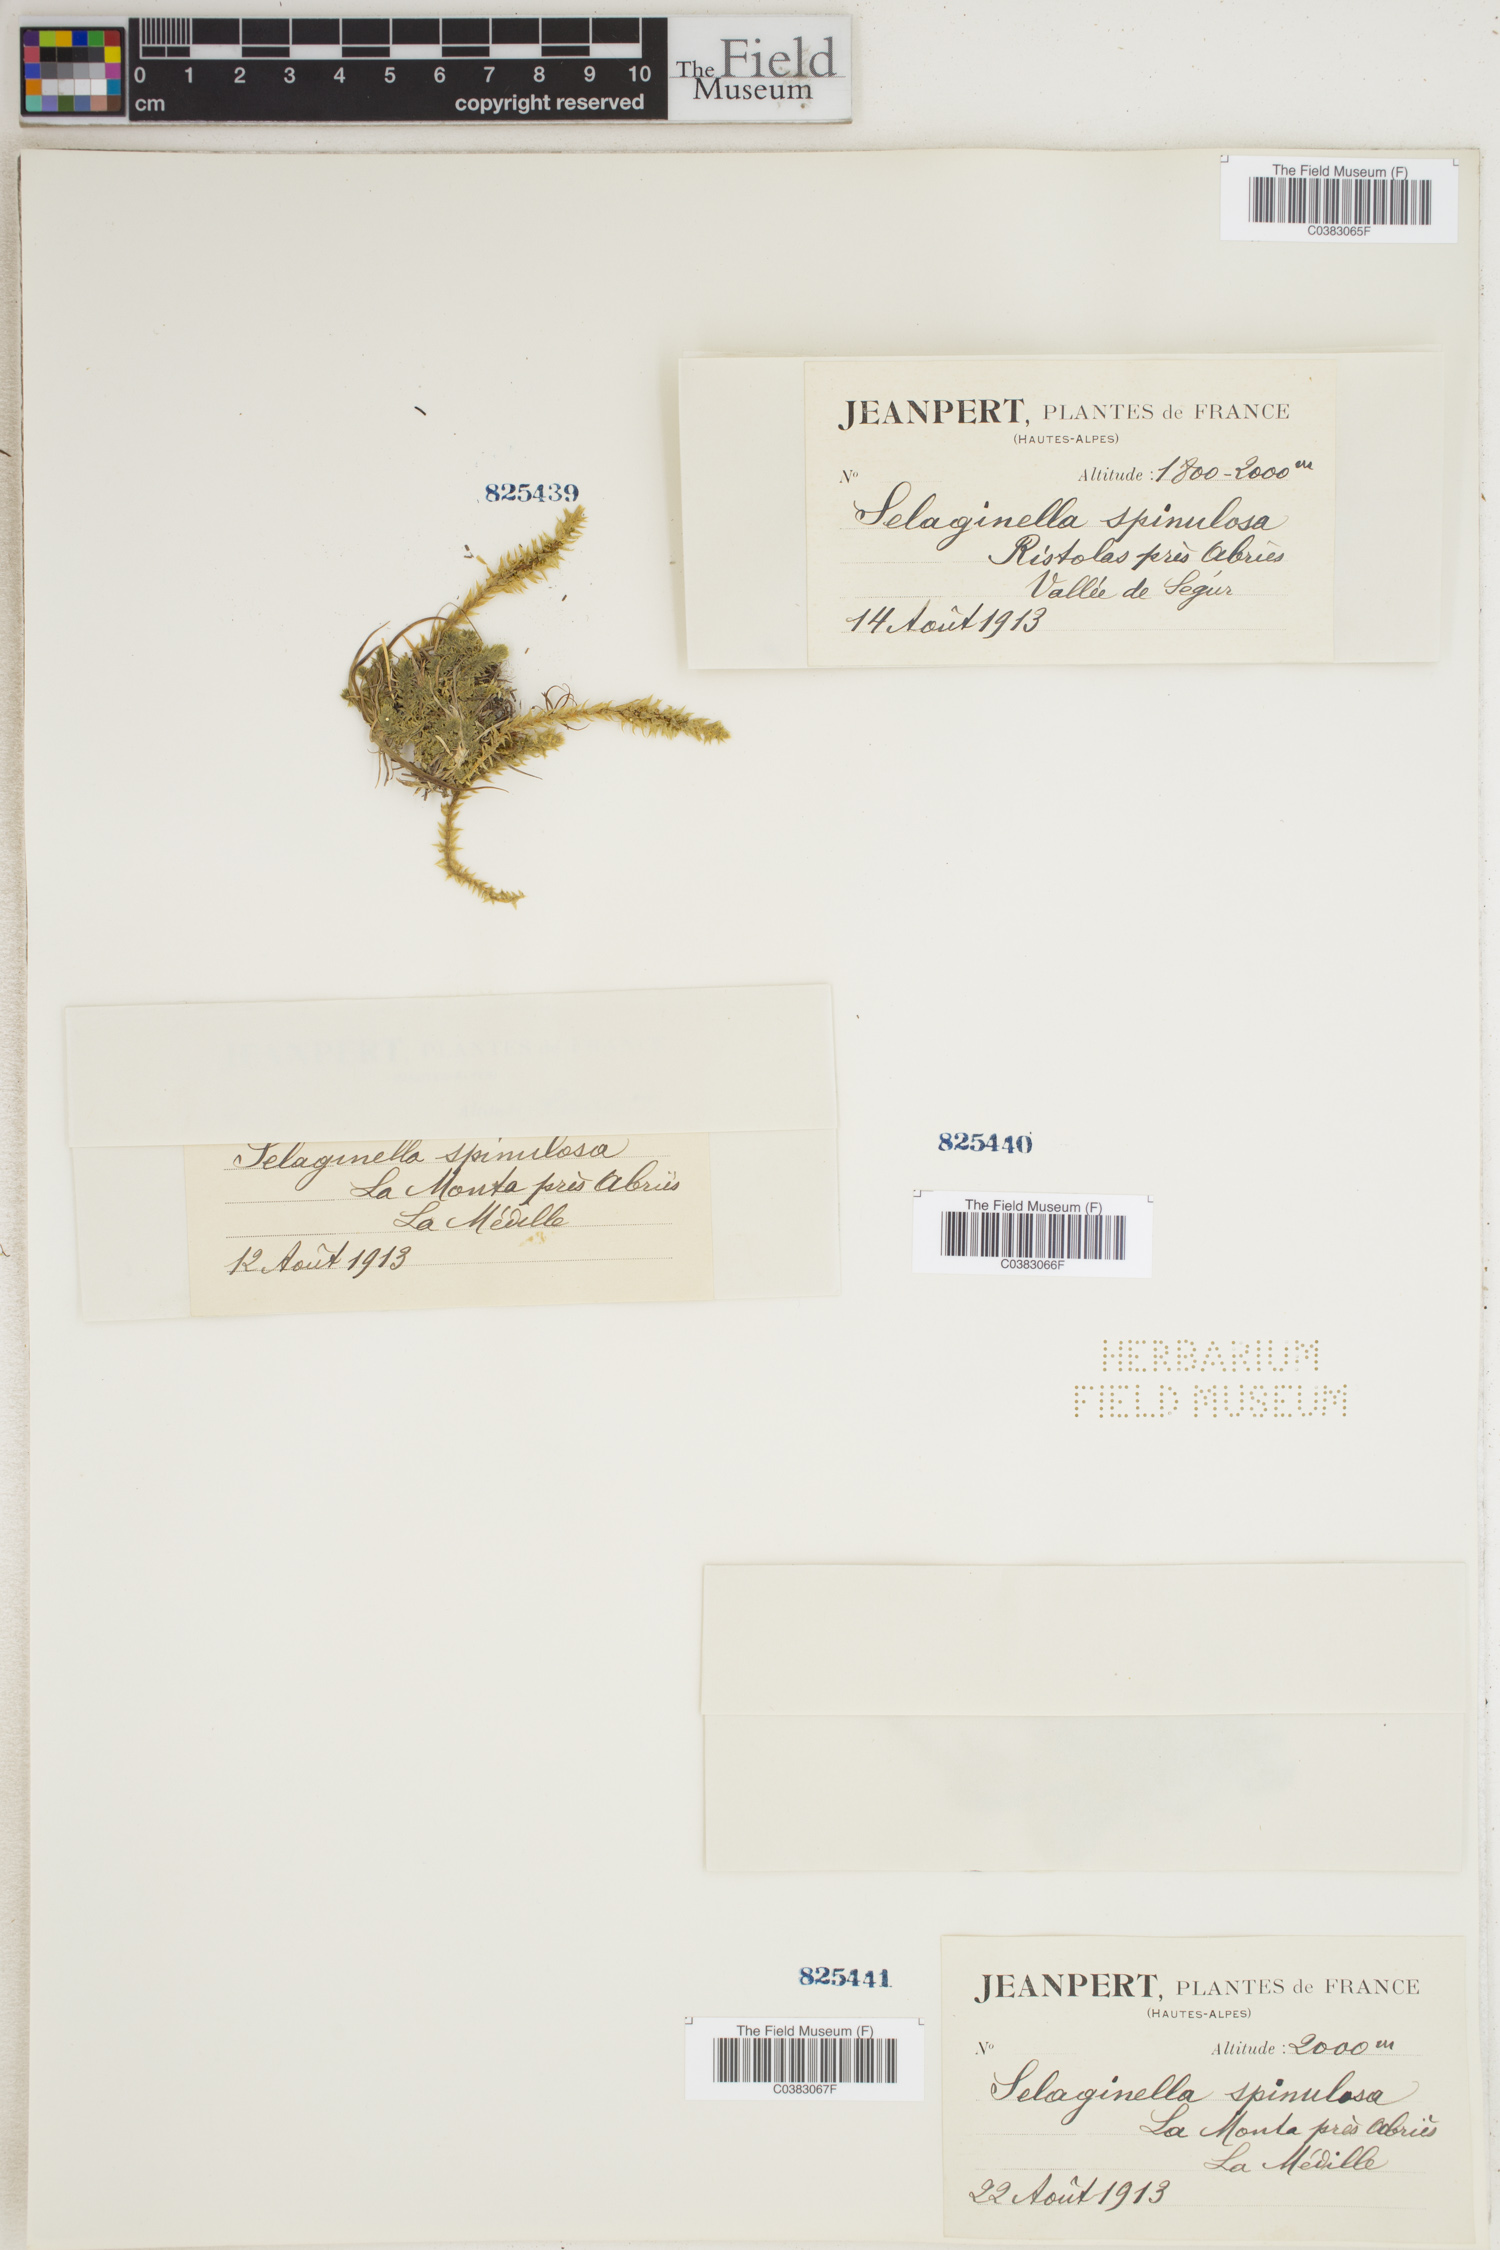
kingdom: Plantae
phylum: Tracheophyta
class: Lycopodiopsida
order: Selaginellales
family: Selaginellaceae
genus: Selaginella
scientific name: Selaginella selaginoides
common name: Prickly mountain-moss
